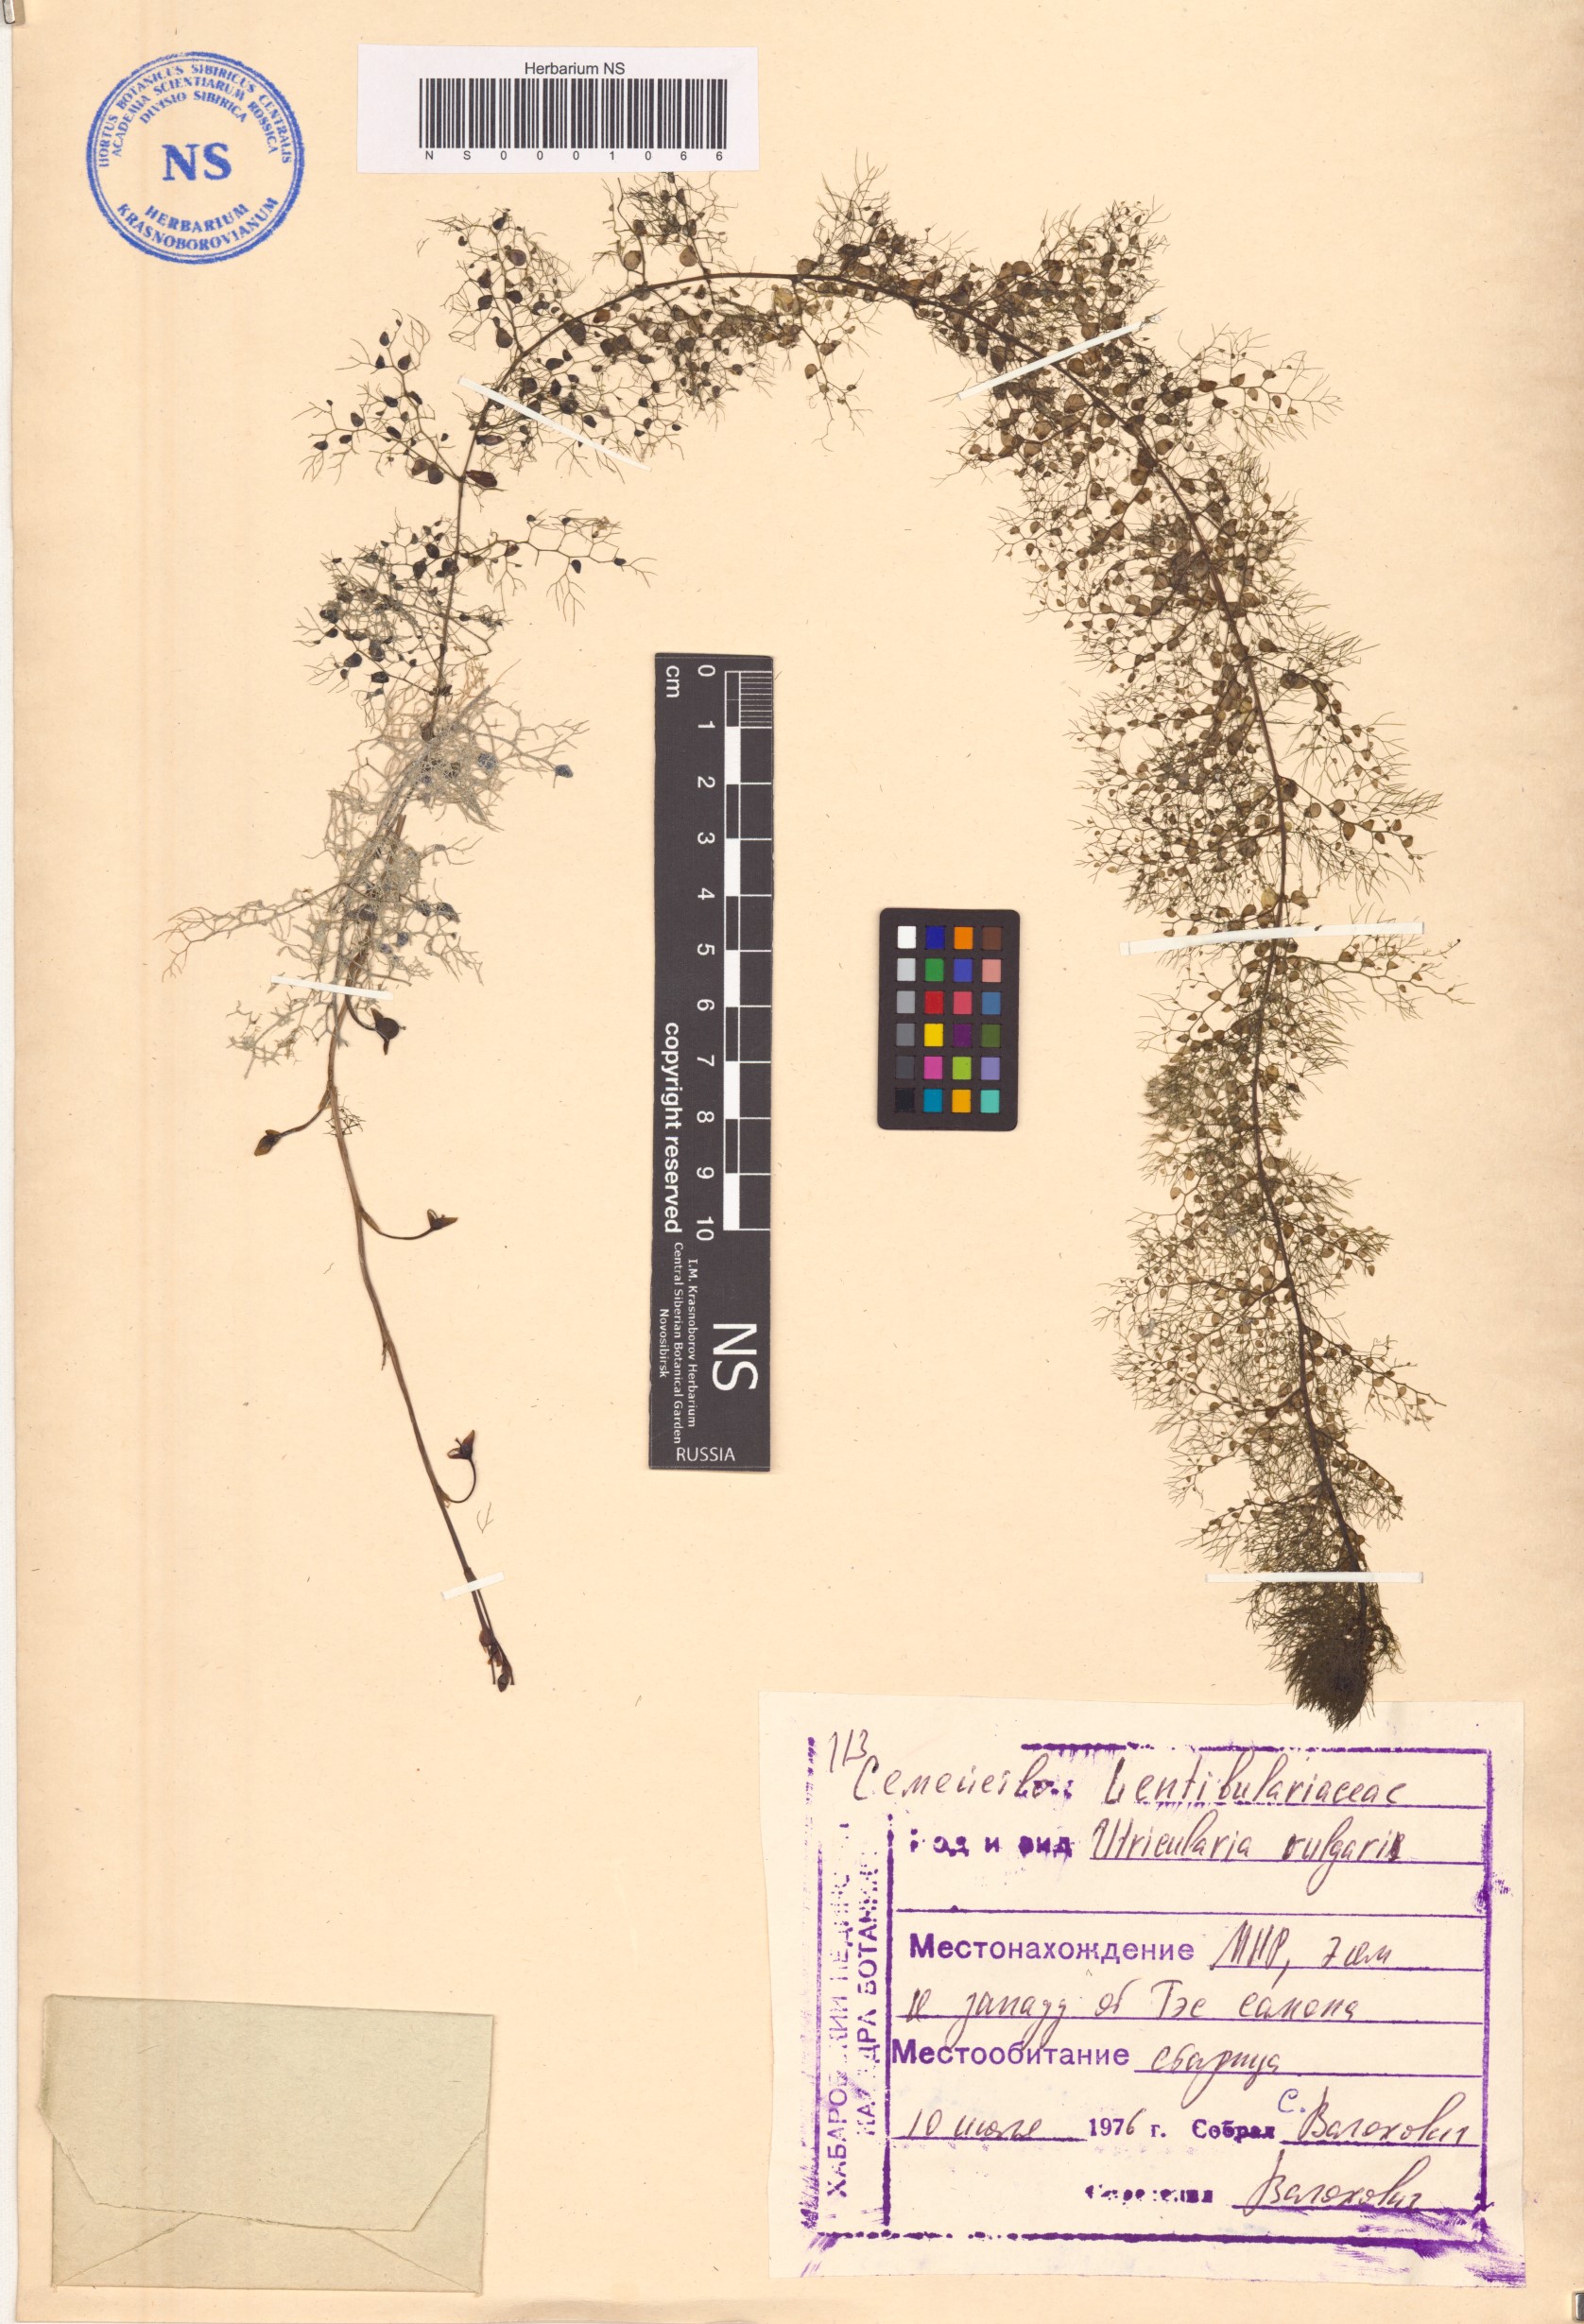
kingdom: Plantae
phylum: Tracheophyta
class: Magnoliopsida
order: Lamiales
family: Lentibulariaceae
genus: Utricularia
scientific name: Utricularia vulgaris
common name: Greater bladderwort
